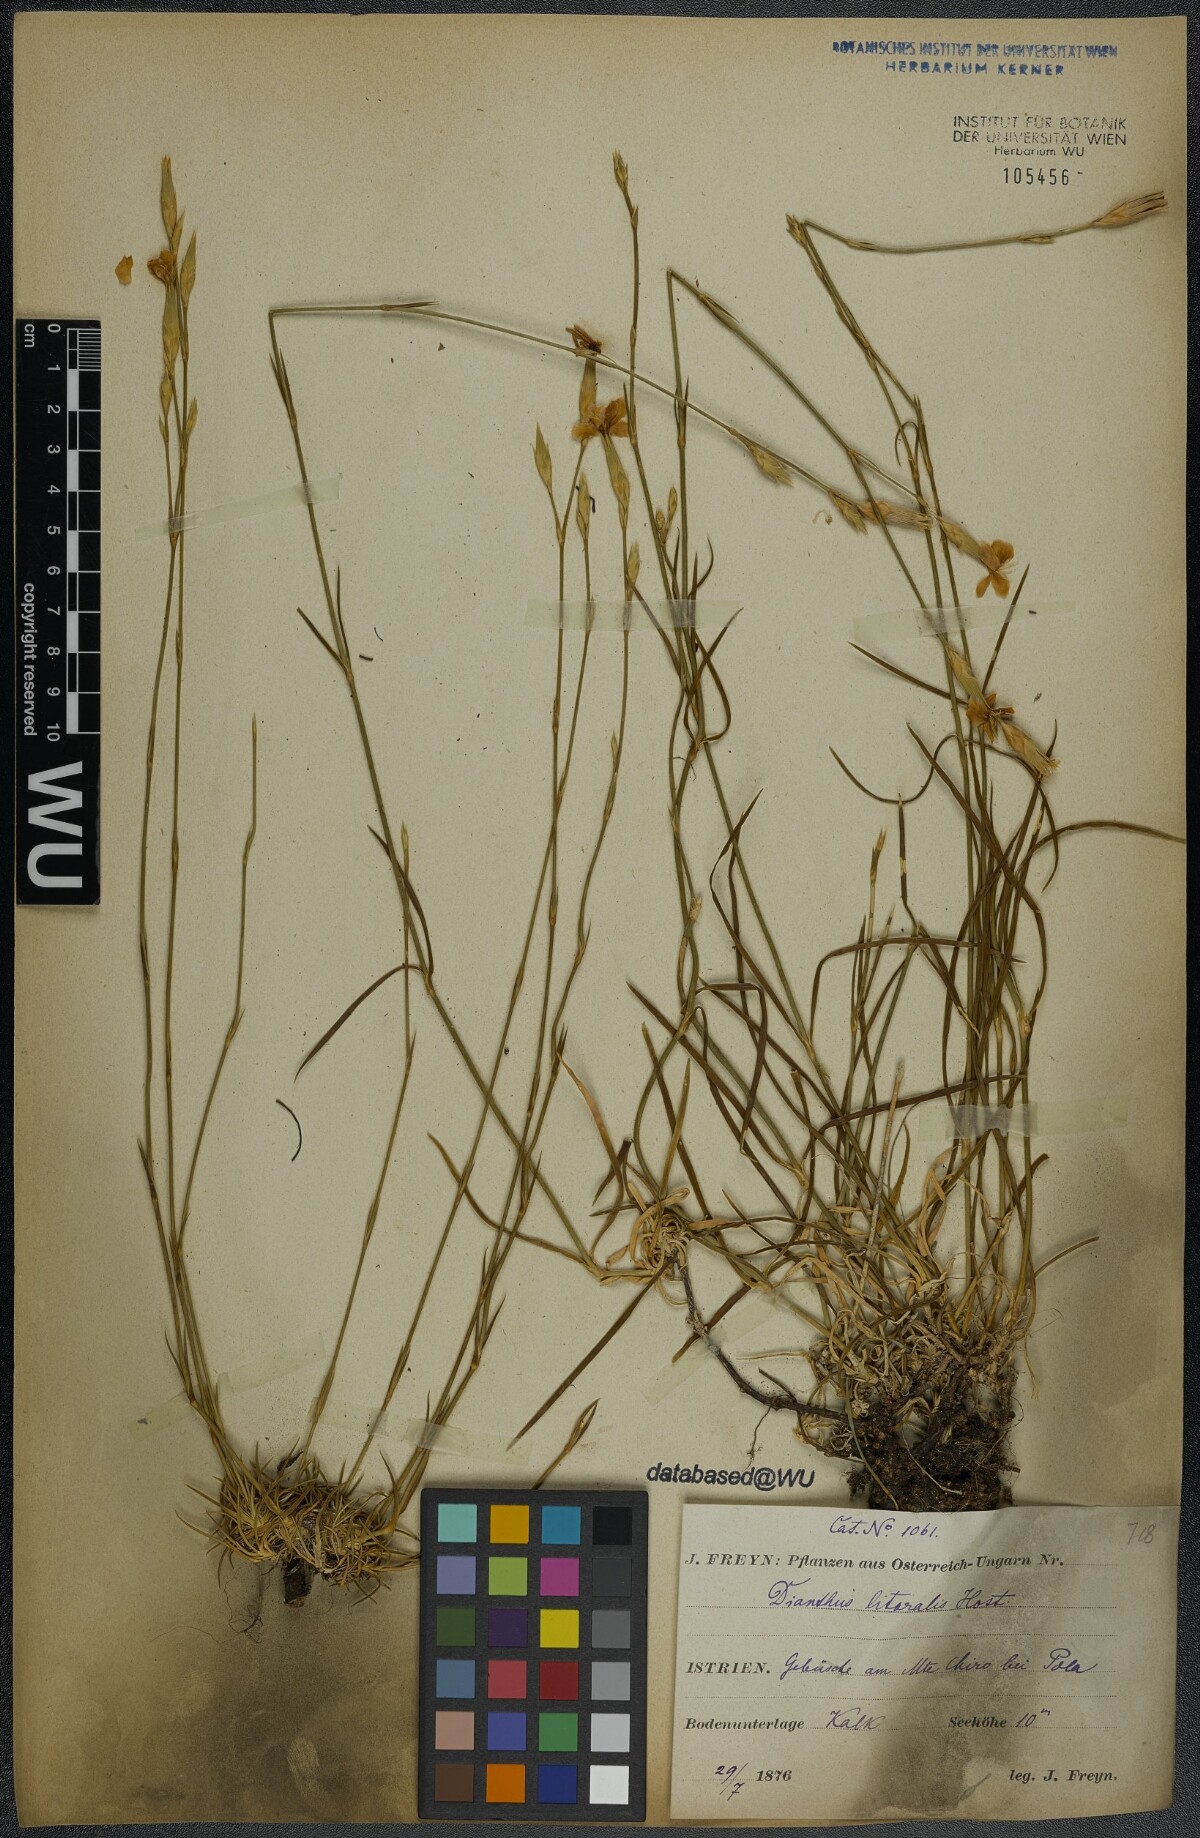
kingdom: Plantae
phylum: Tracheophyta
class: Magnoliopsida
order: Caryophyllales
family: Caryophyllaceae
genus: Dianthus
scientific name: Dianthus ciliatus
